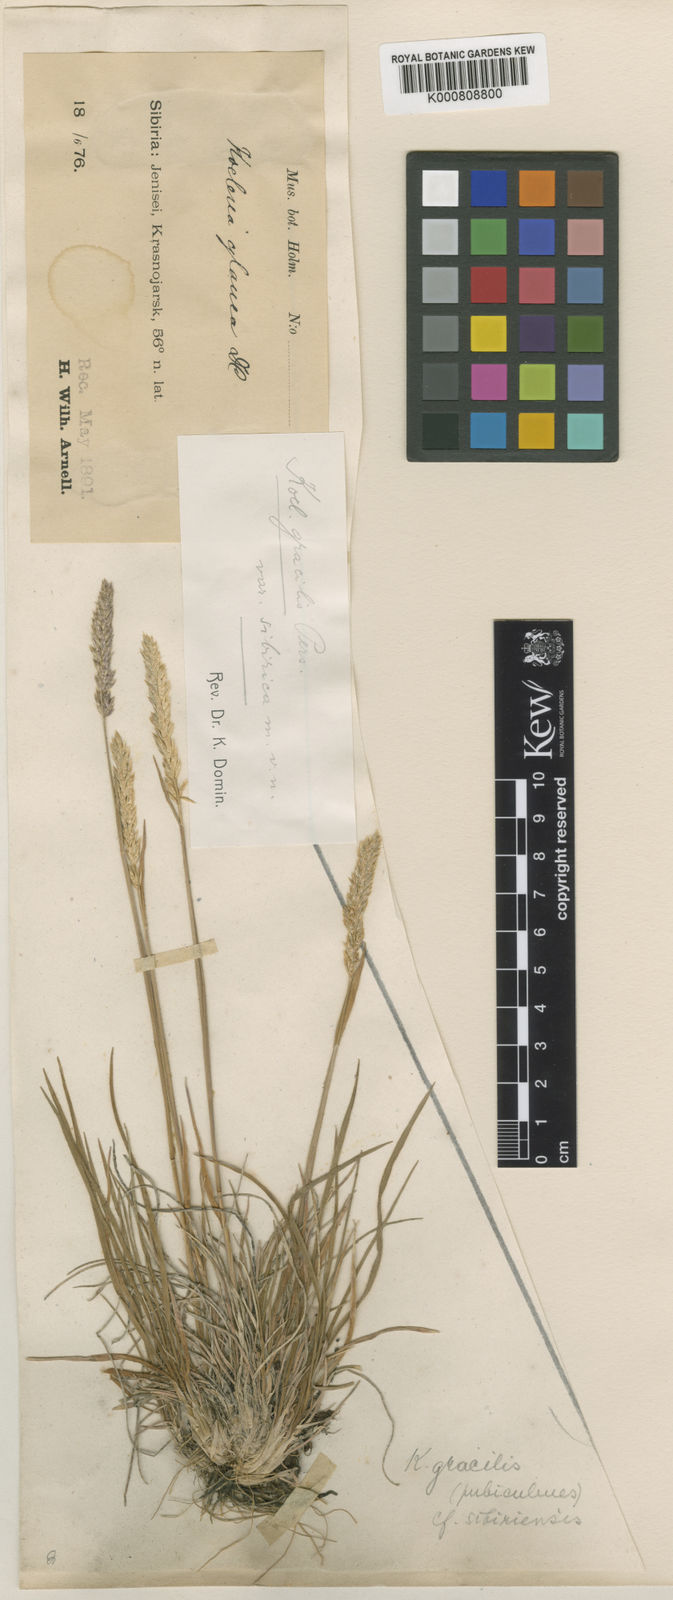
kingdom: Plantae
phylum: Tracheophyta
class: Liliopsida
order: Poales
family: Poaceae
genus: Koeleria
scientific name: Koeleria pyramidata
